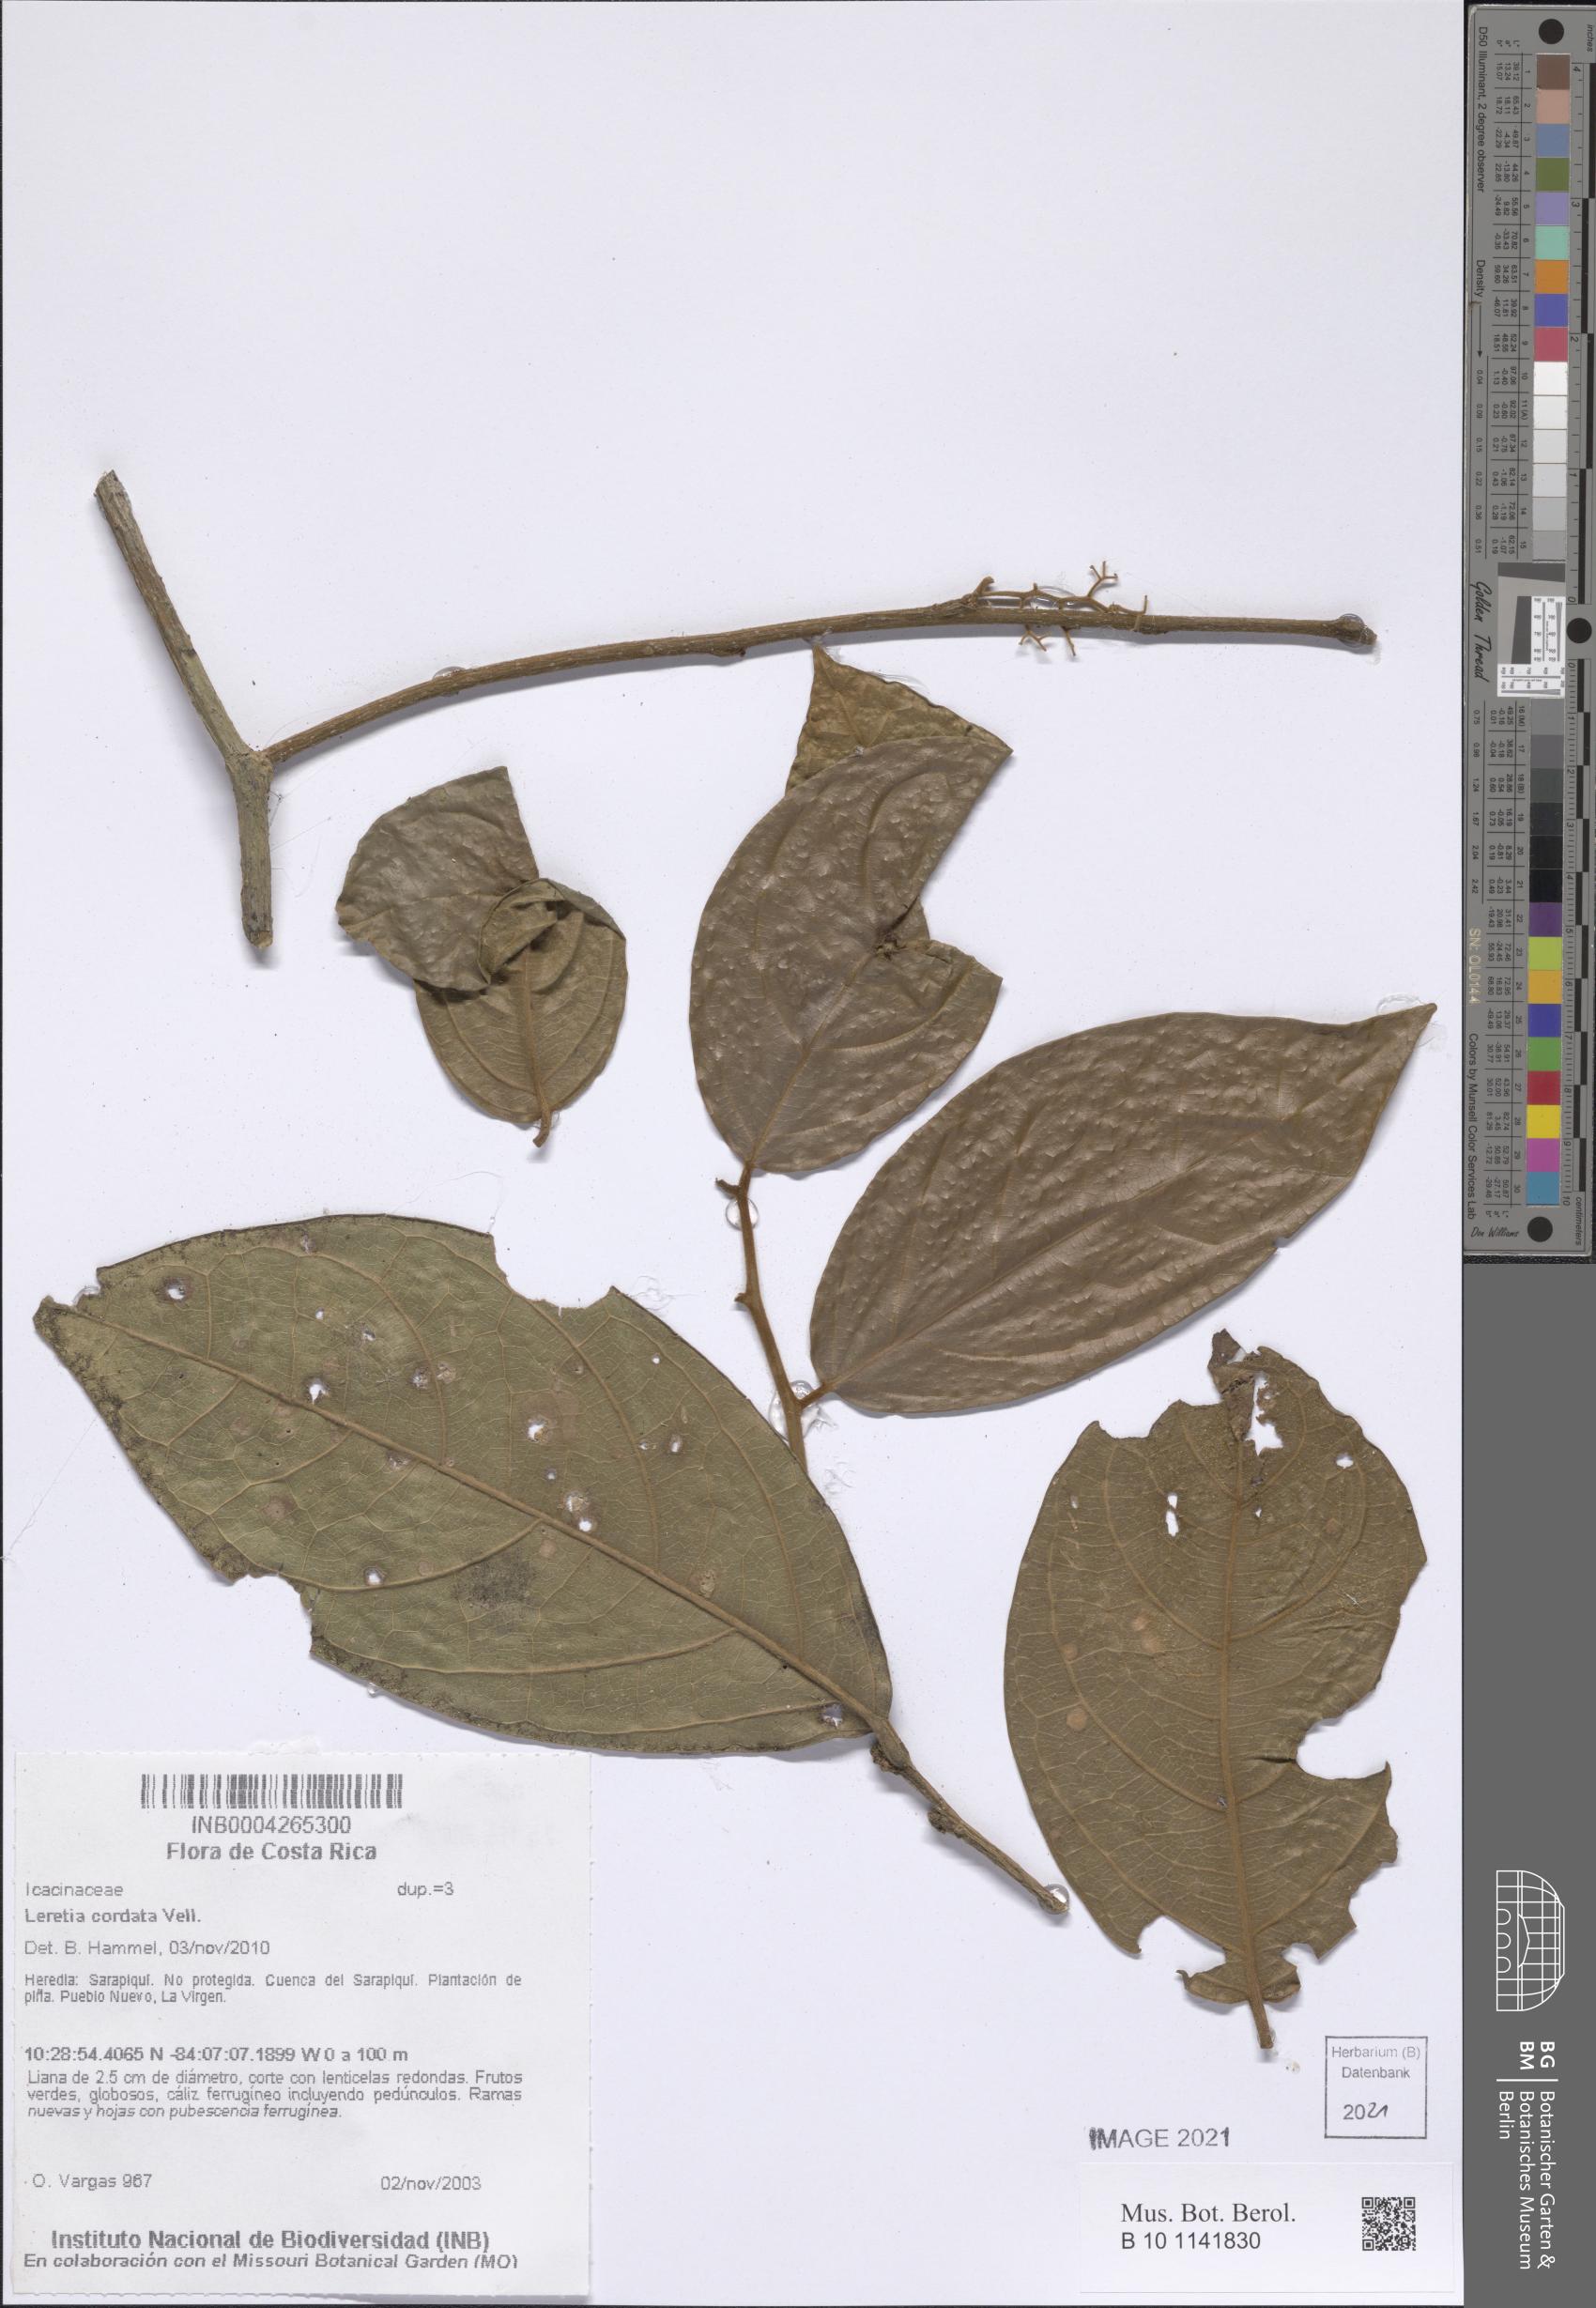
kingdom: Plantae
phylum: Tracheophyta
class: Magnoliopsida
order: Icacinales
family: Icacinaceae
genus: Leretia
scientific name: Leretia cordata
